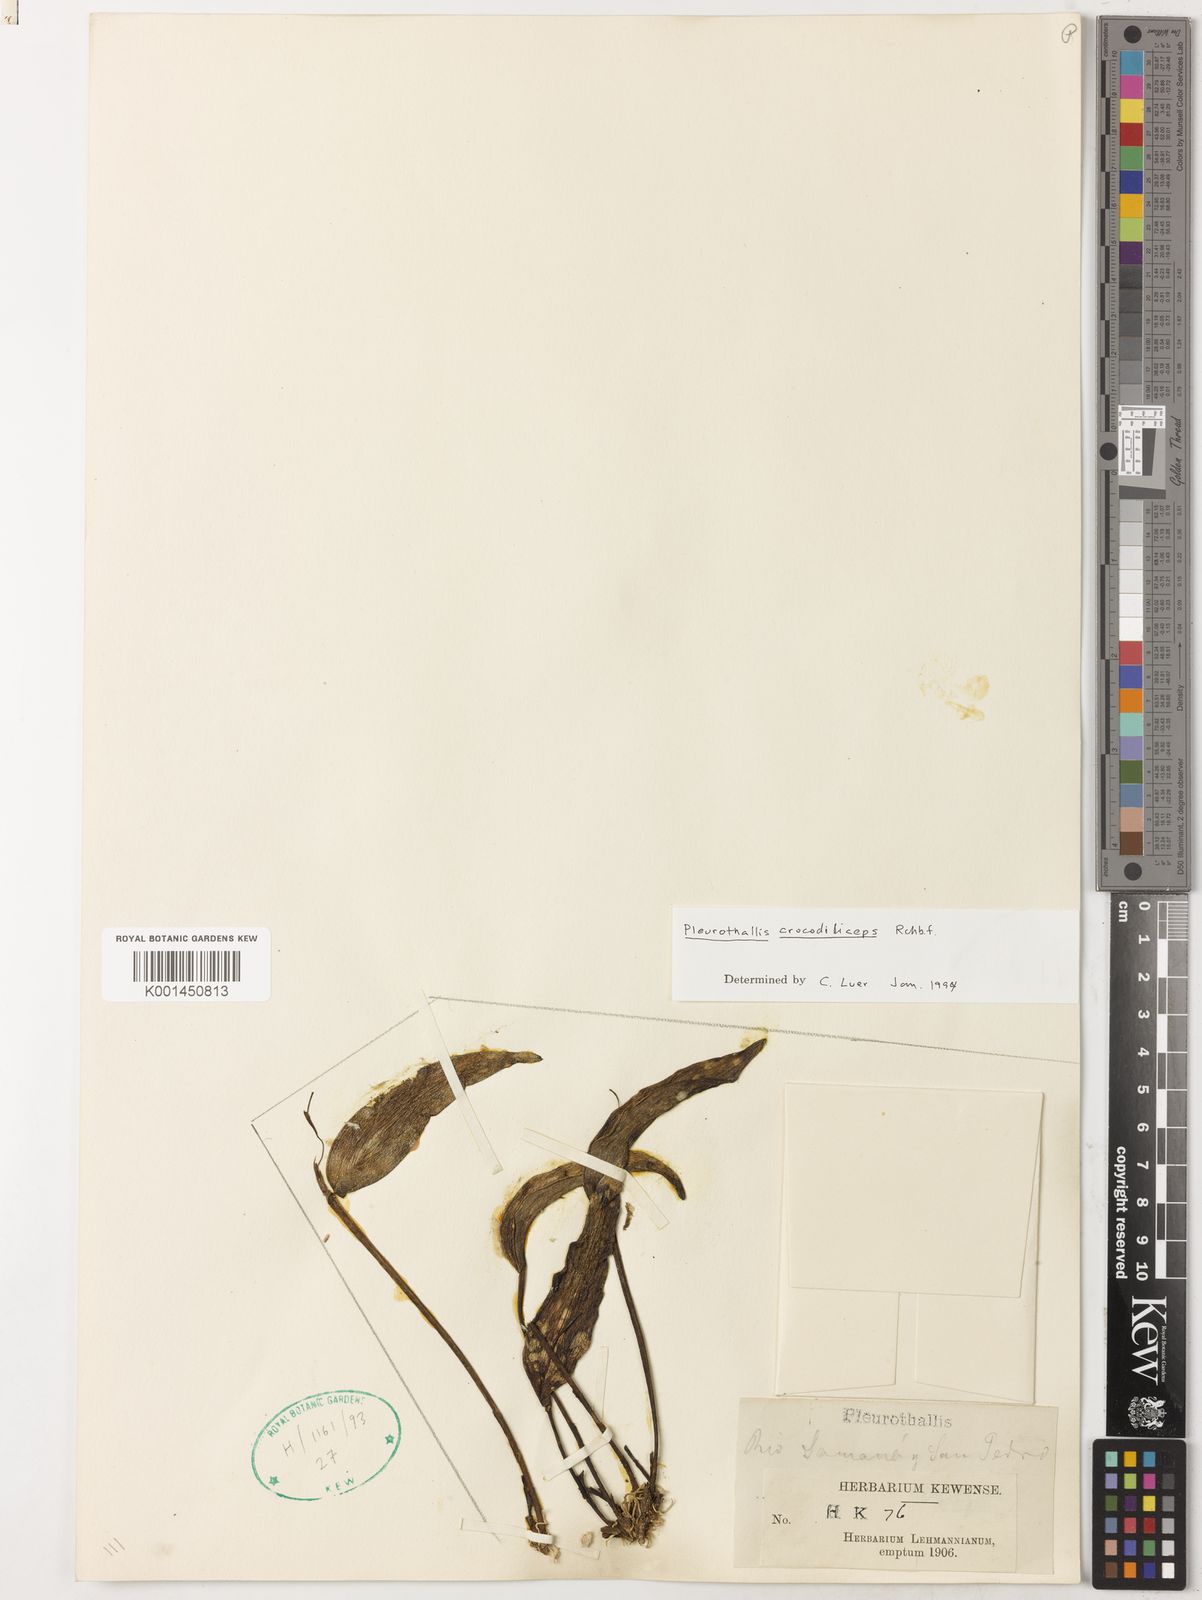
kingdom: Plantae
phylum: Tracheophyta
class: Liliopsida
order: Asparagales
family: Orchidaceae
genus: Pleurothallis
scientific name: Pleurothallis crocodiliceps
